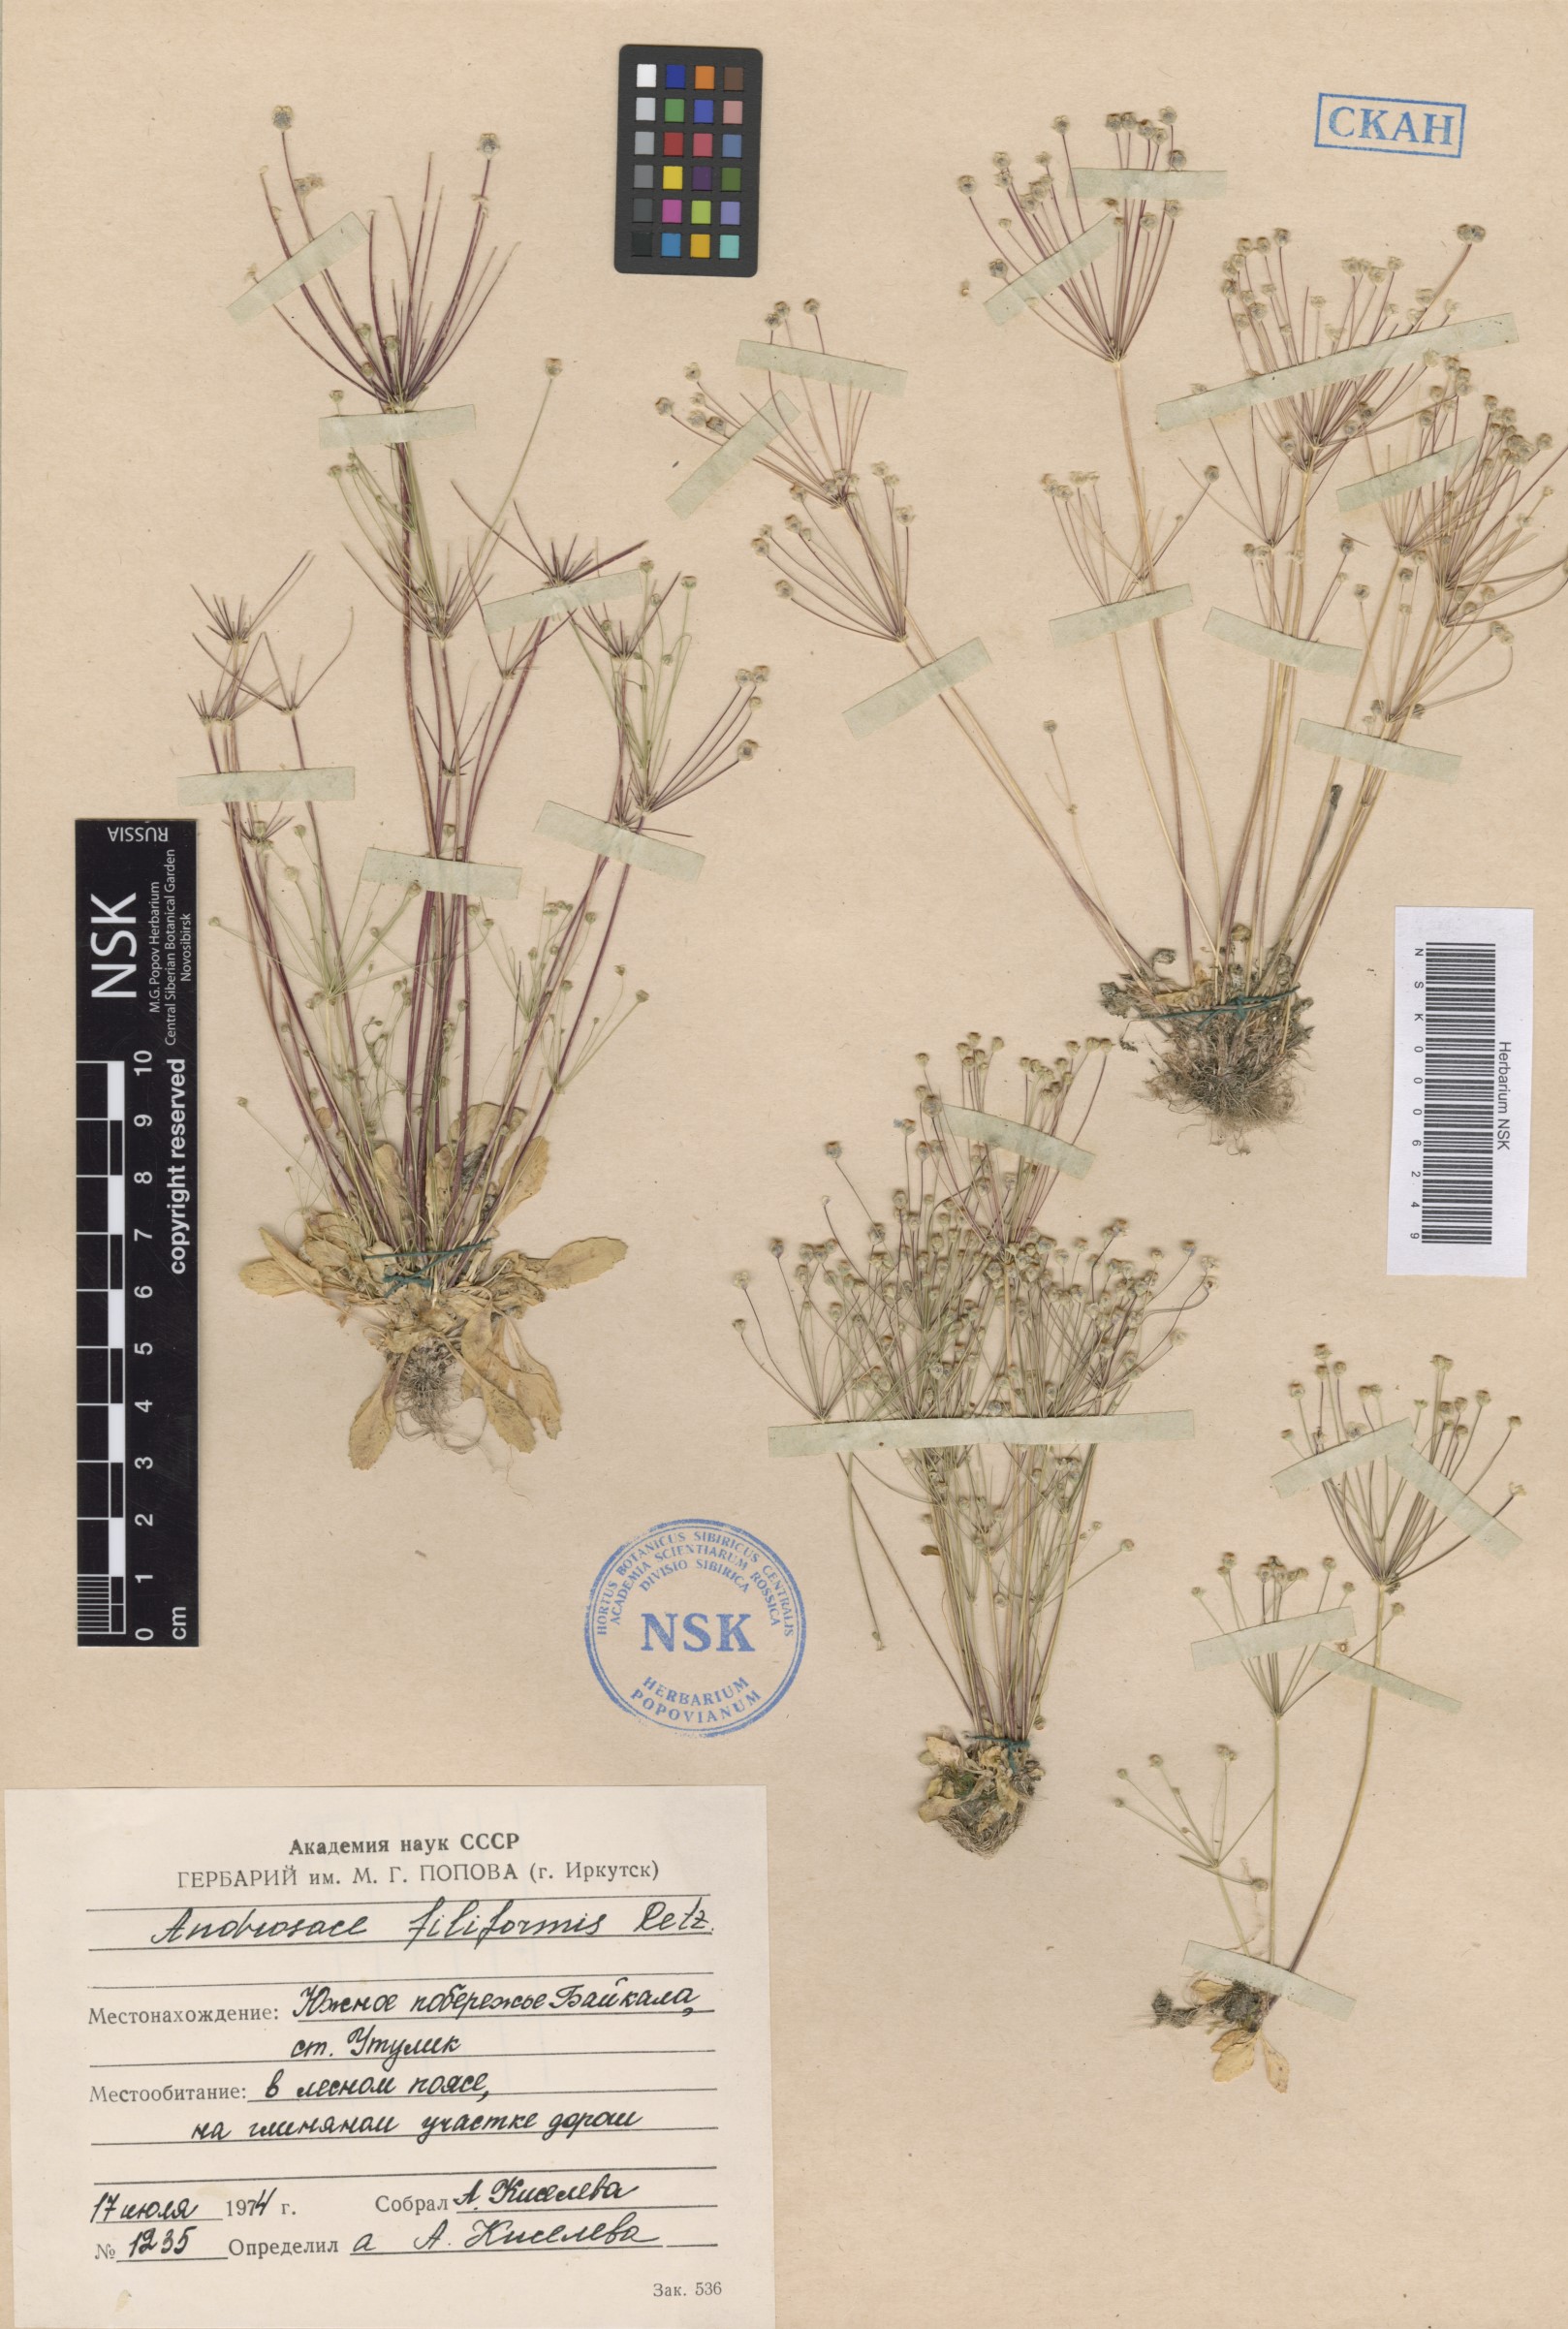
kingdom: Plantae
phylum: Tracheophyta
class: Magnoliopsida
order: Ericales
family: Primulaceae
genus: Androsace
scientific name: Androsace filiformis
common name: Filiform rock jasmine
